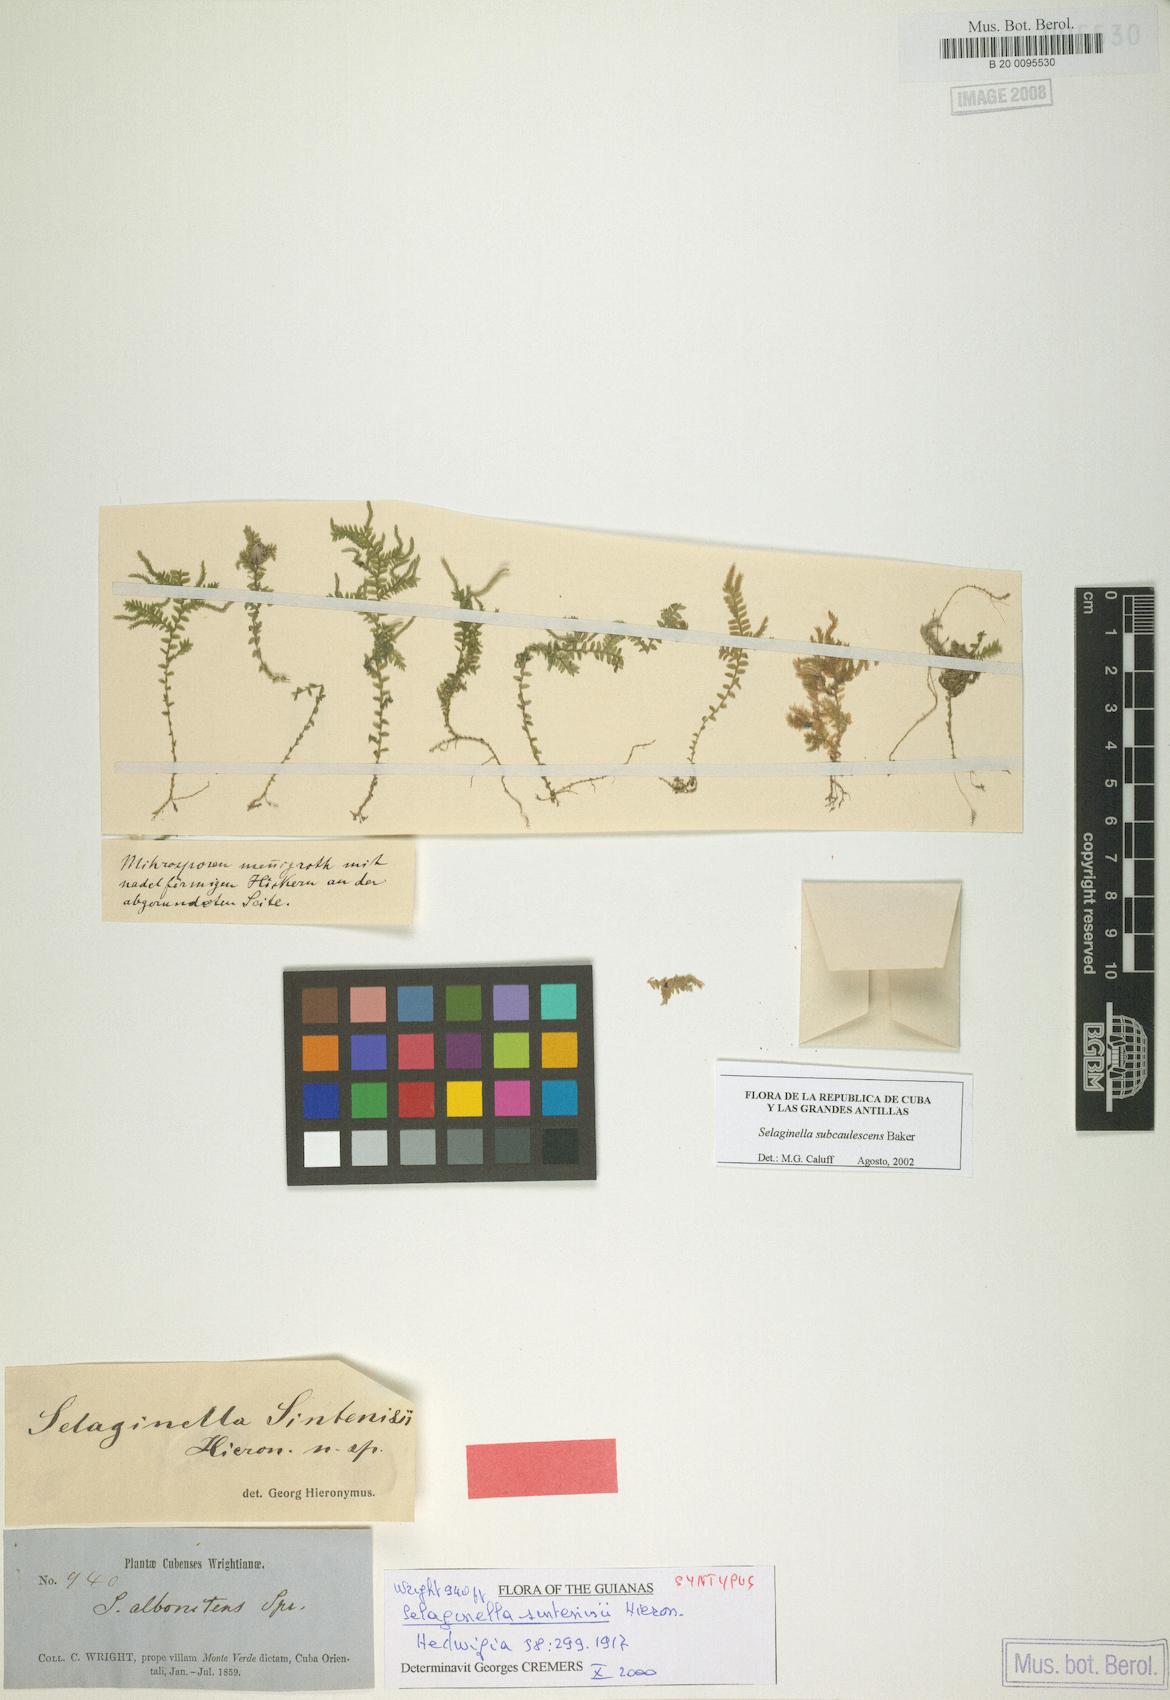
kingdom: Plantae
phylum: Tracheophyta
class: Lycopodiopsida
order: Selaginellales
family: Selaginellaceae
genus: Selaginella
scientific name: Selaginella tenella
